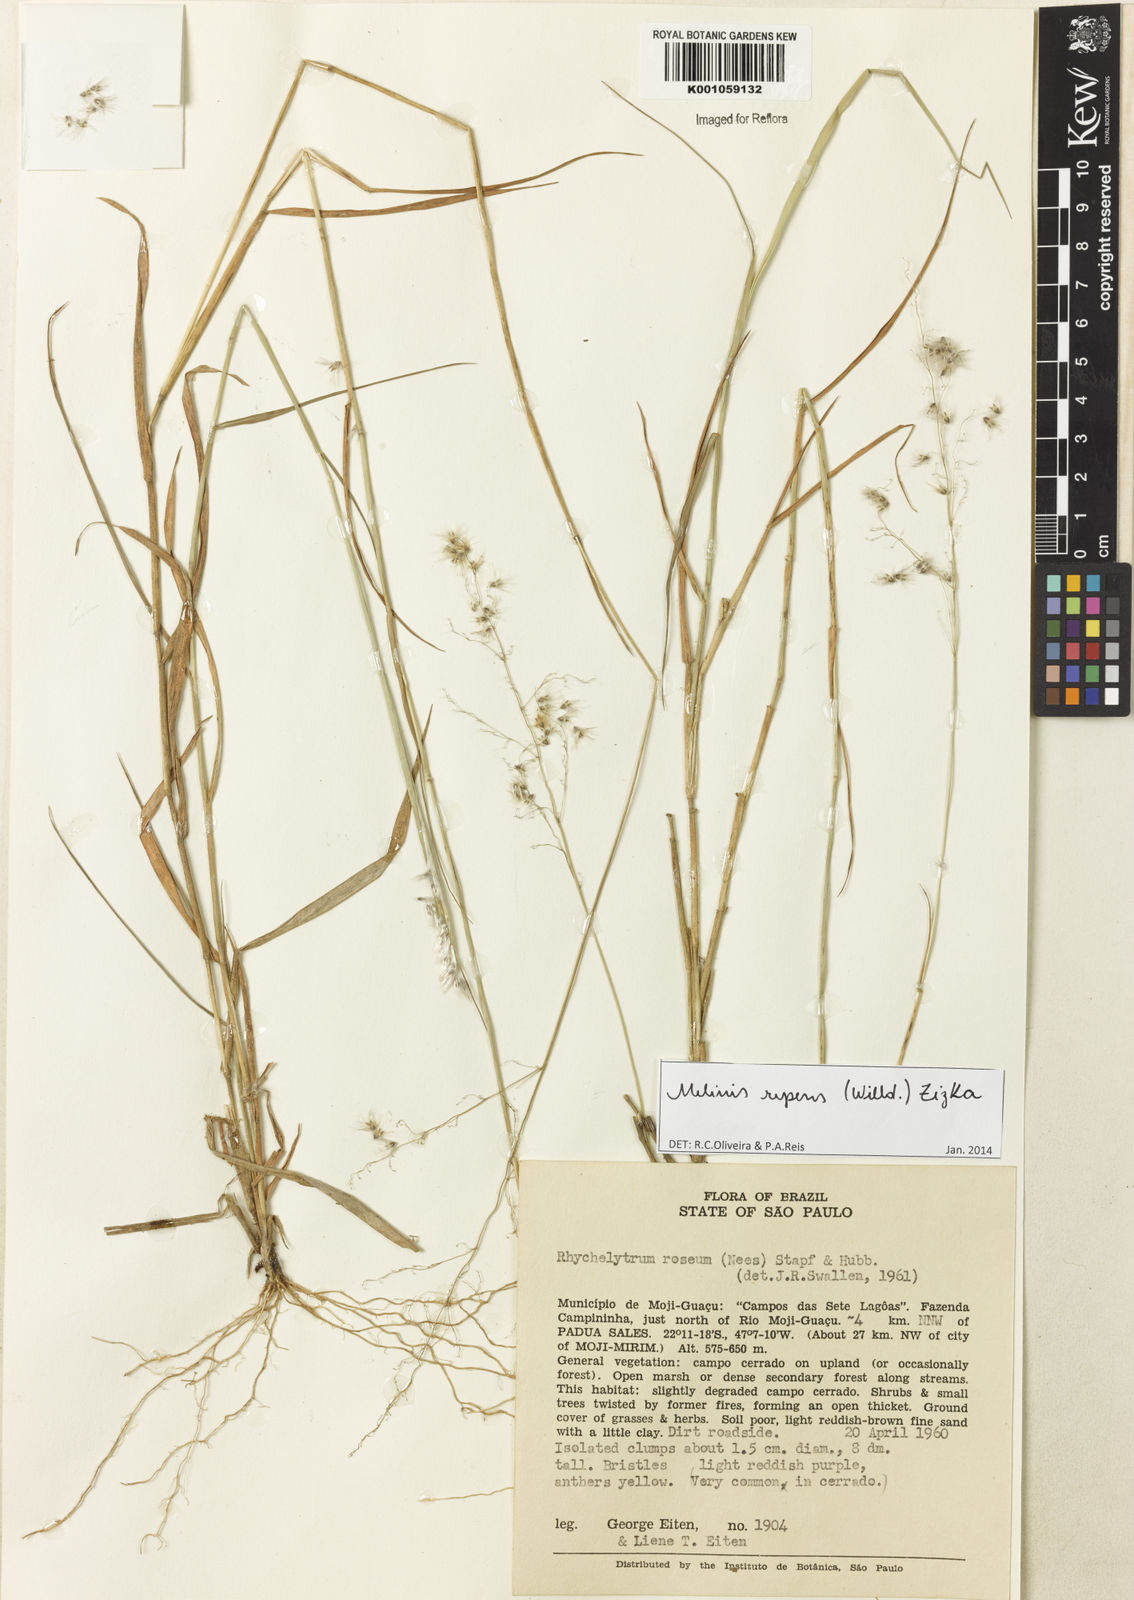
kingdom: Plantae
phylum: Tracheophyta
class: Liliopsida
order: Poales
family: Poaceae
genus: Melinis
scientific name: Melinis repens
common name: Rose natal grass
